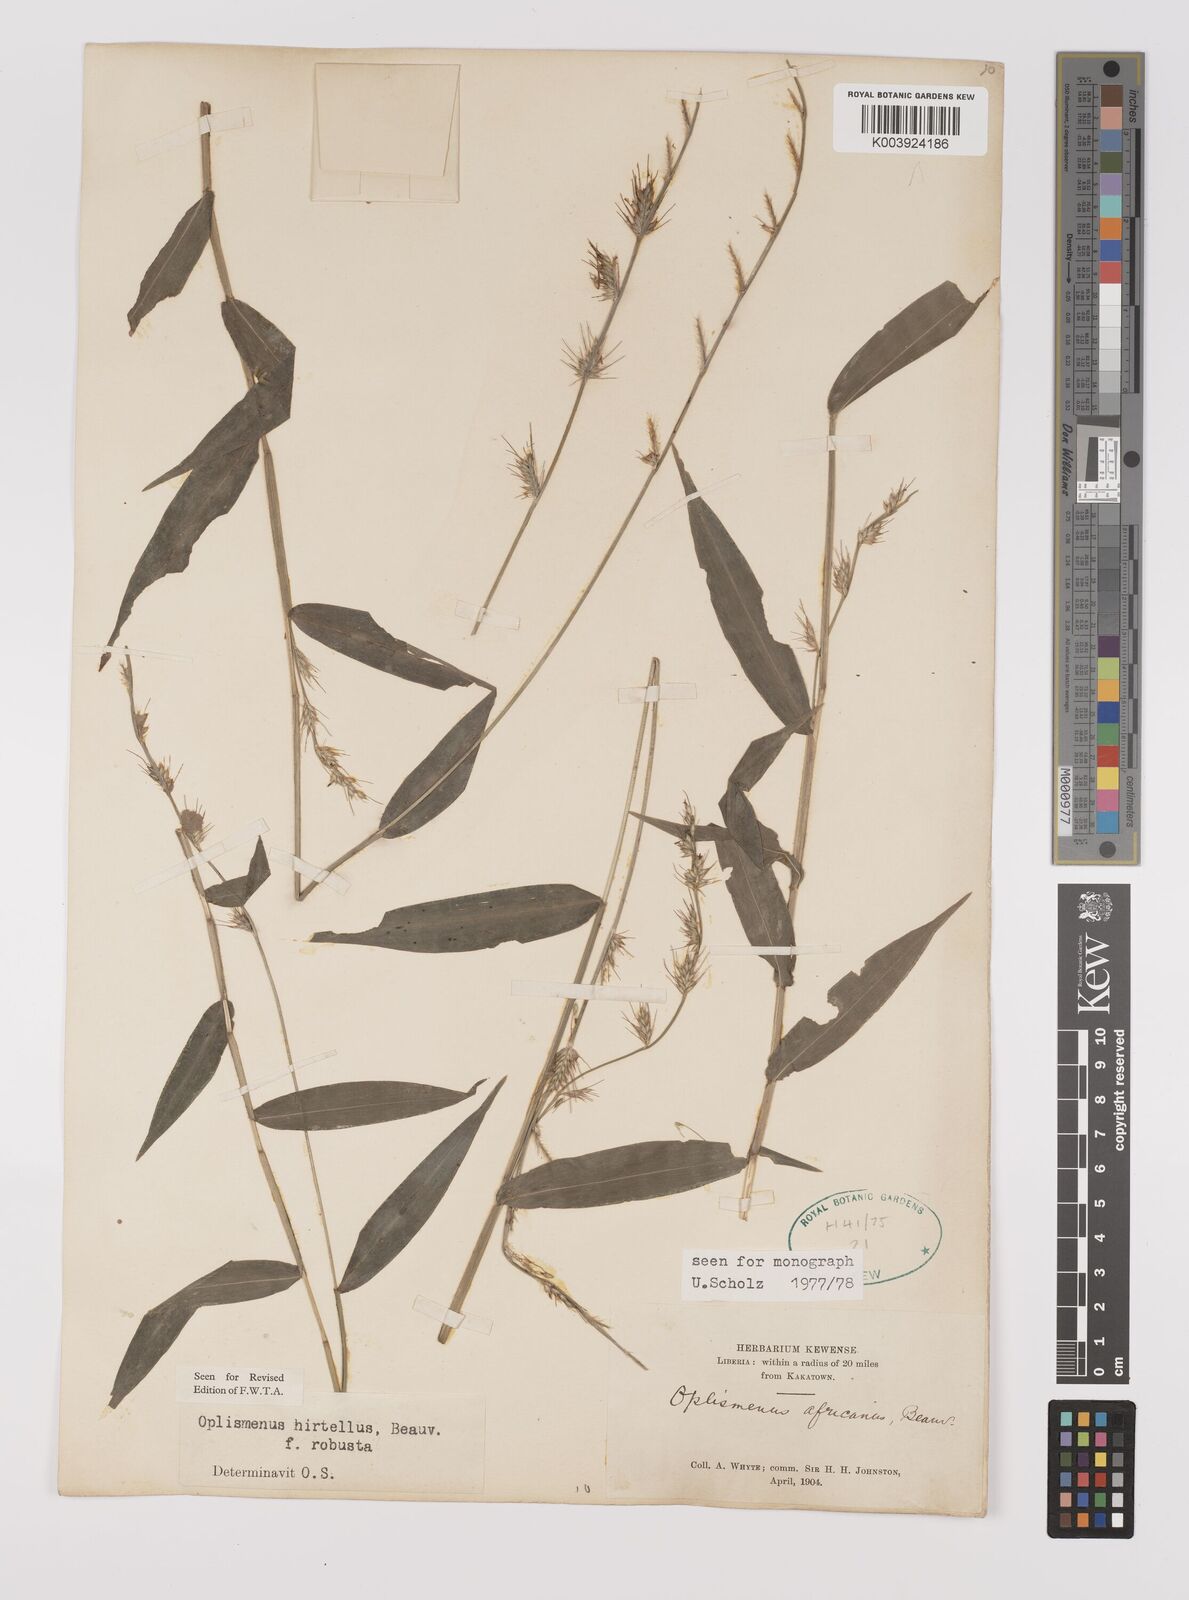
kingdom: Plantae
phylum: Tracheophyta
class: Liliopsida
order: Poales
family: Poaceae
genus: Oplismenus
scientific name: Oplismenus hirtellus
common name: Basketgrass
